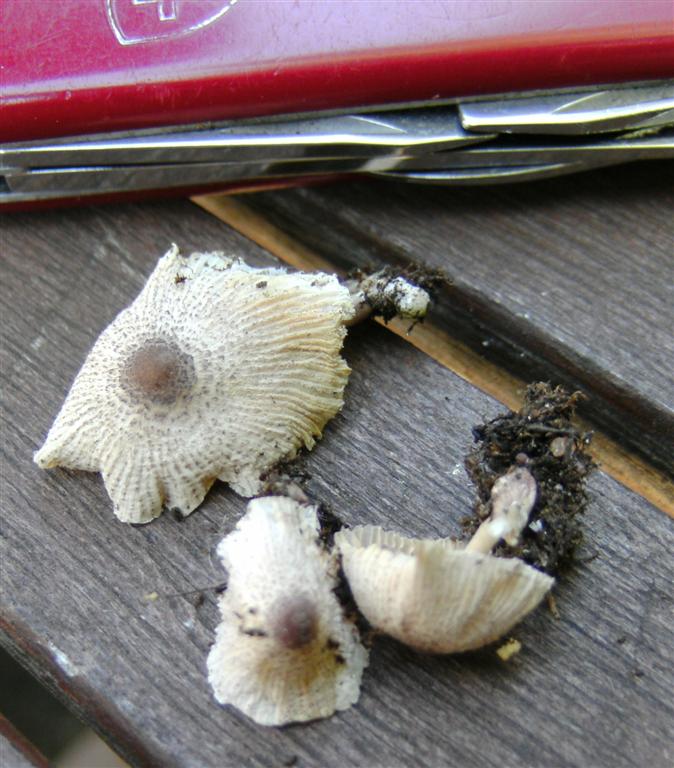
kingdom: Fungi
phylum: Basidiomycota
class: Agaricomycetes
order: Agaricales
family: Agaricaceae
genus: Leucocoprinus
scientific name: Leucocoprinus ianthinus
